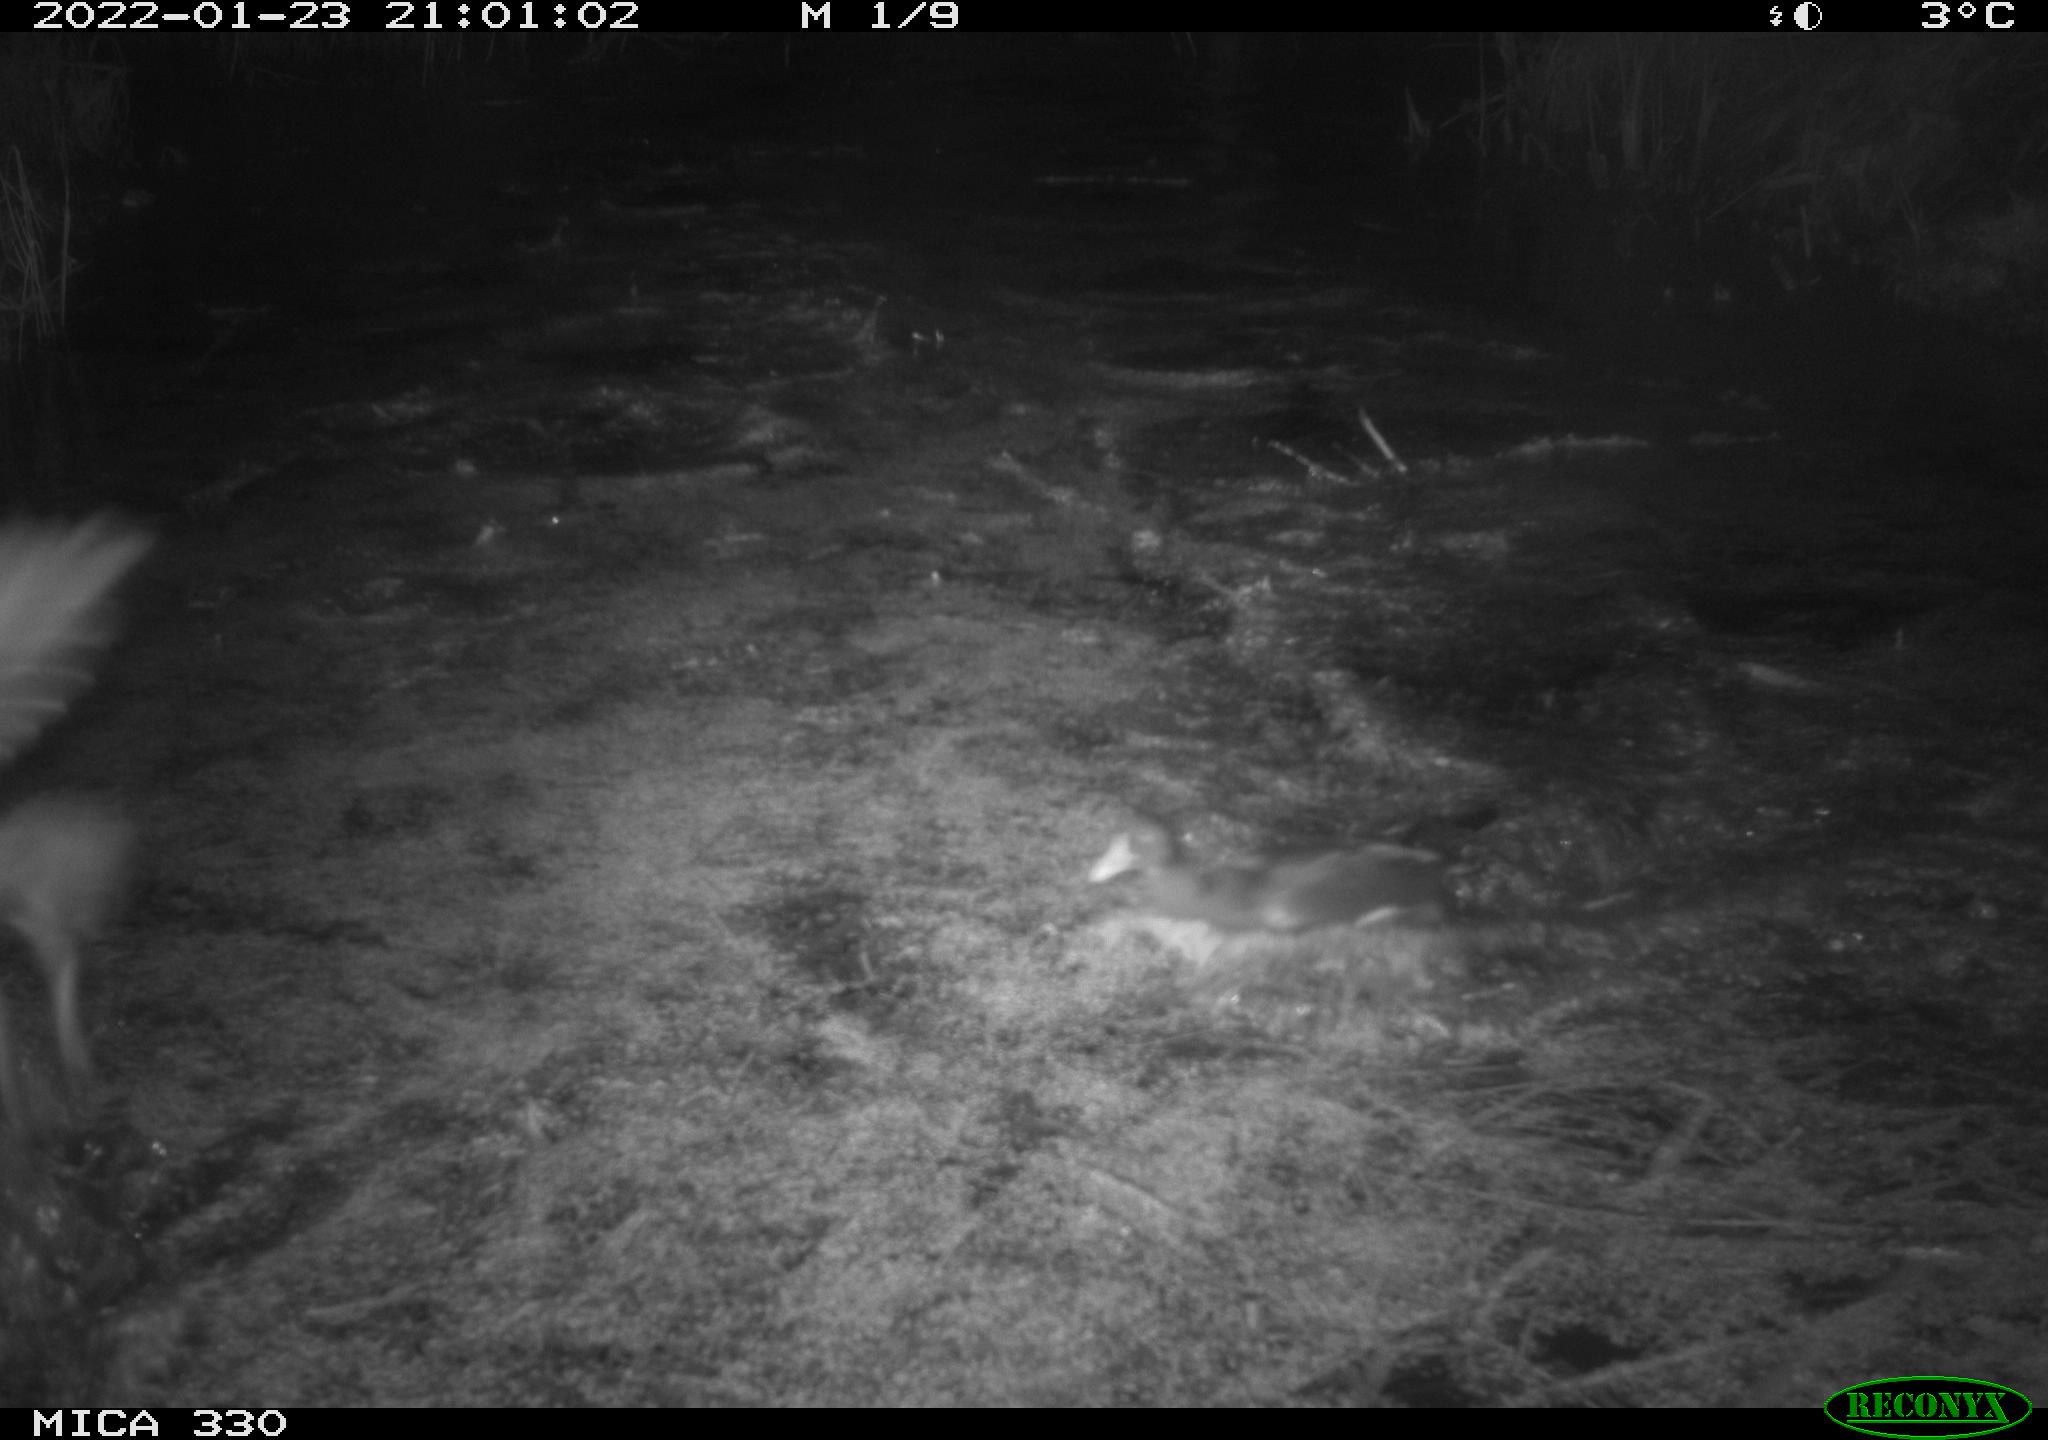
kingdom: Animalia
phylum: Chordata
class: Aves
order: Gruiformes
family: Rallidae
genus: Gallinula
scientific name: Gallinula chloropus
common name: Common moorhen
